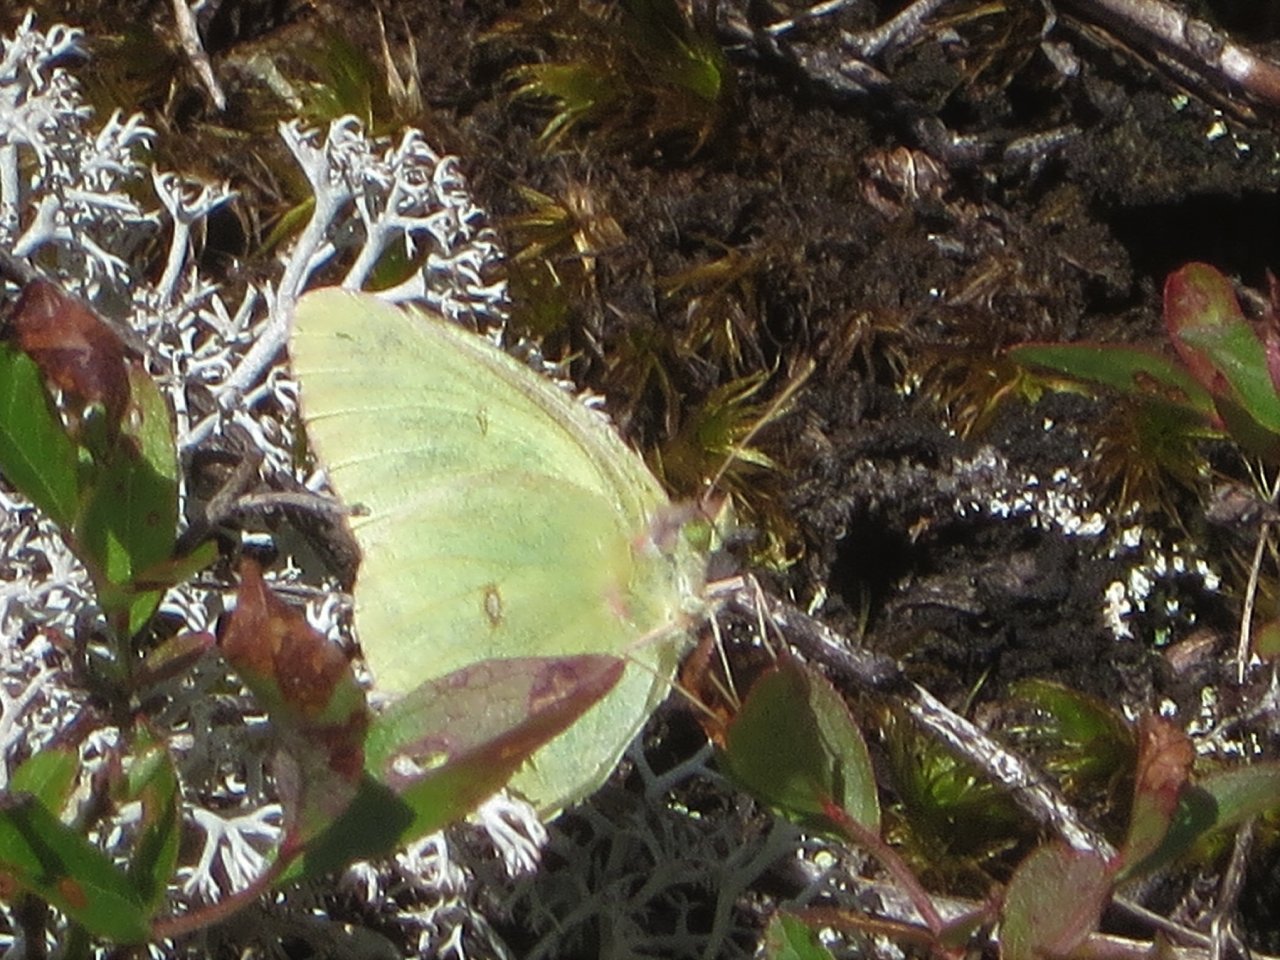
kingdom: Animalia
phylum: Arthropoda
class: Insecta
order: Lepidoptera
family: Pieridae
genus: Colias
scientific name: Colias interior
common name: Pink-edged Sulphur
